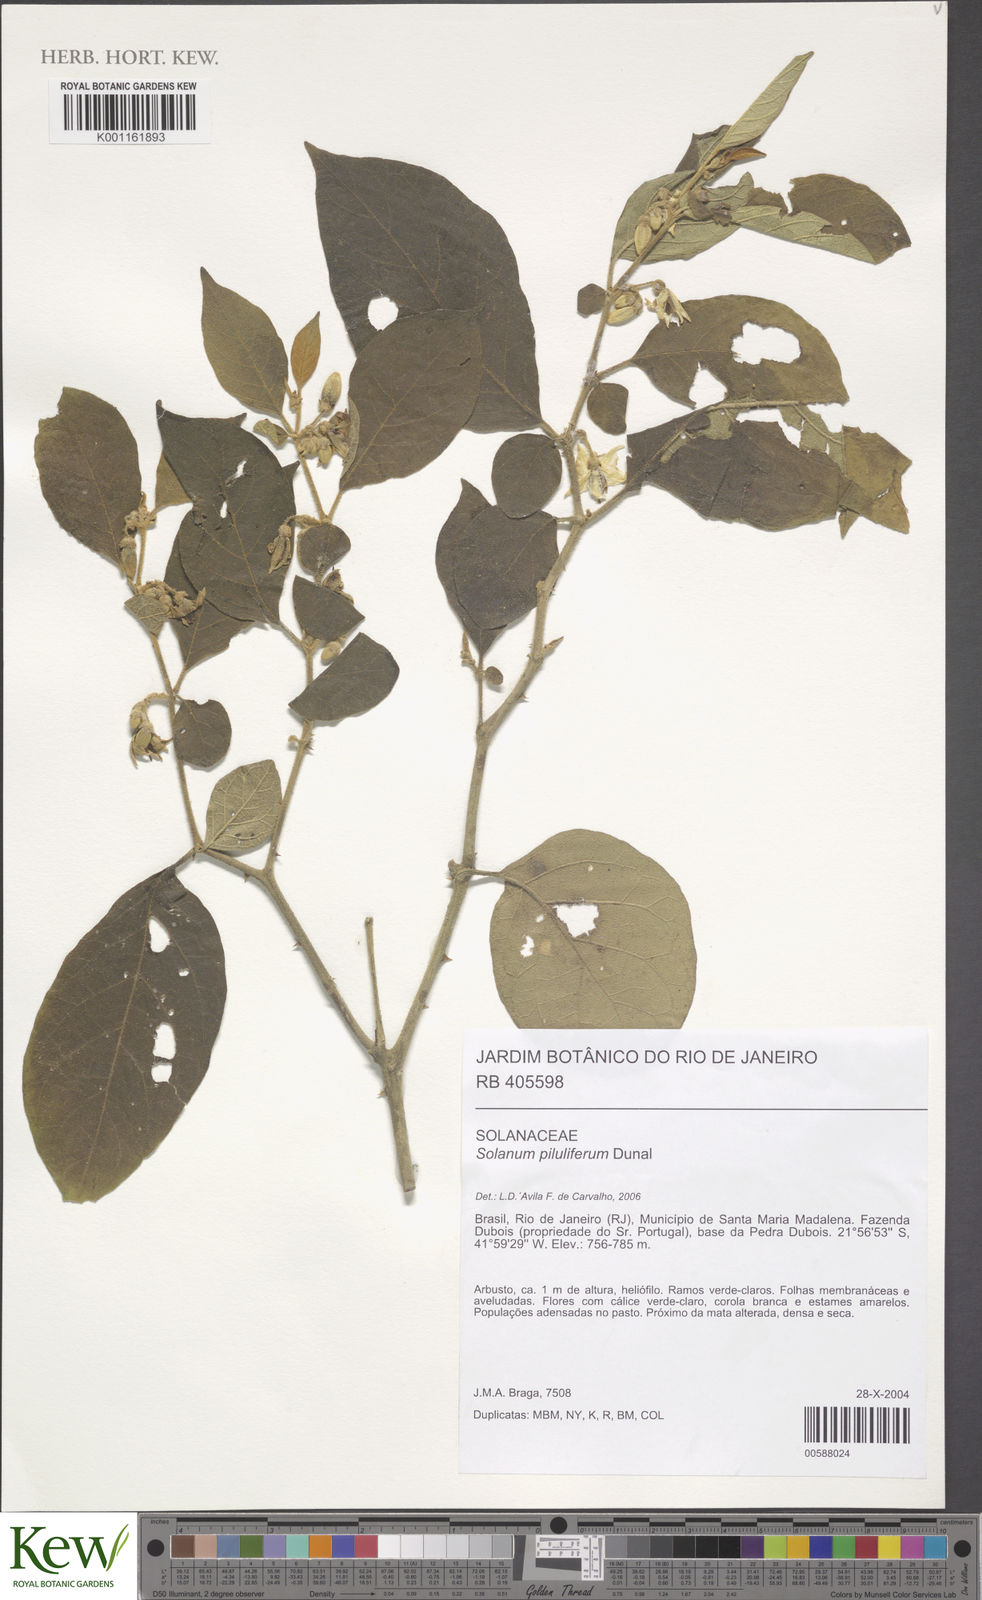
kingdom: Plantae
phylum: Tracheophyta
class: Magnoliopsida
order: Solanales
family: Solanaceae
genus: Solanum
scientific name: Solanum piluliferum
